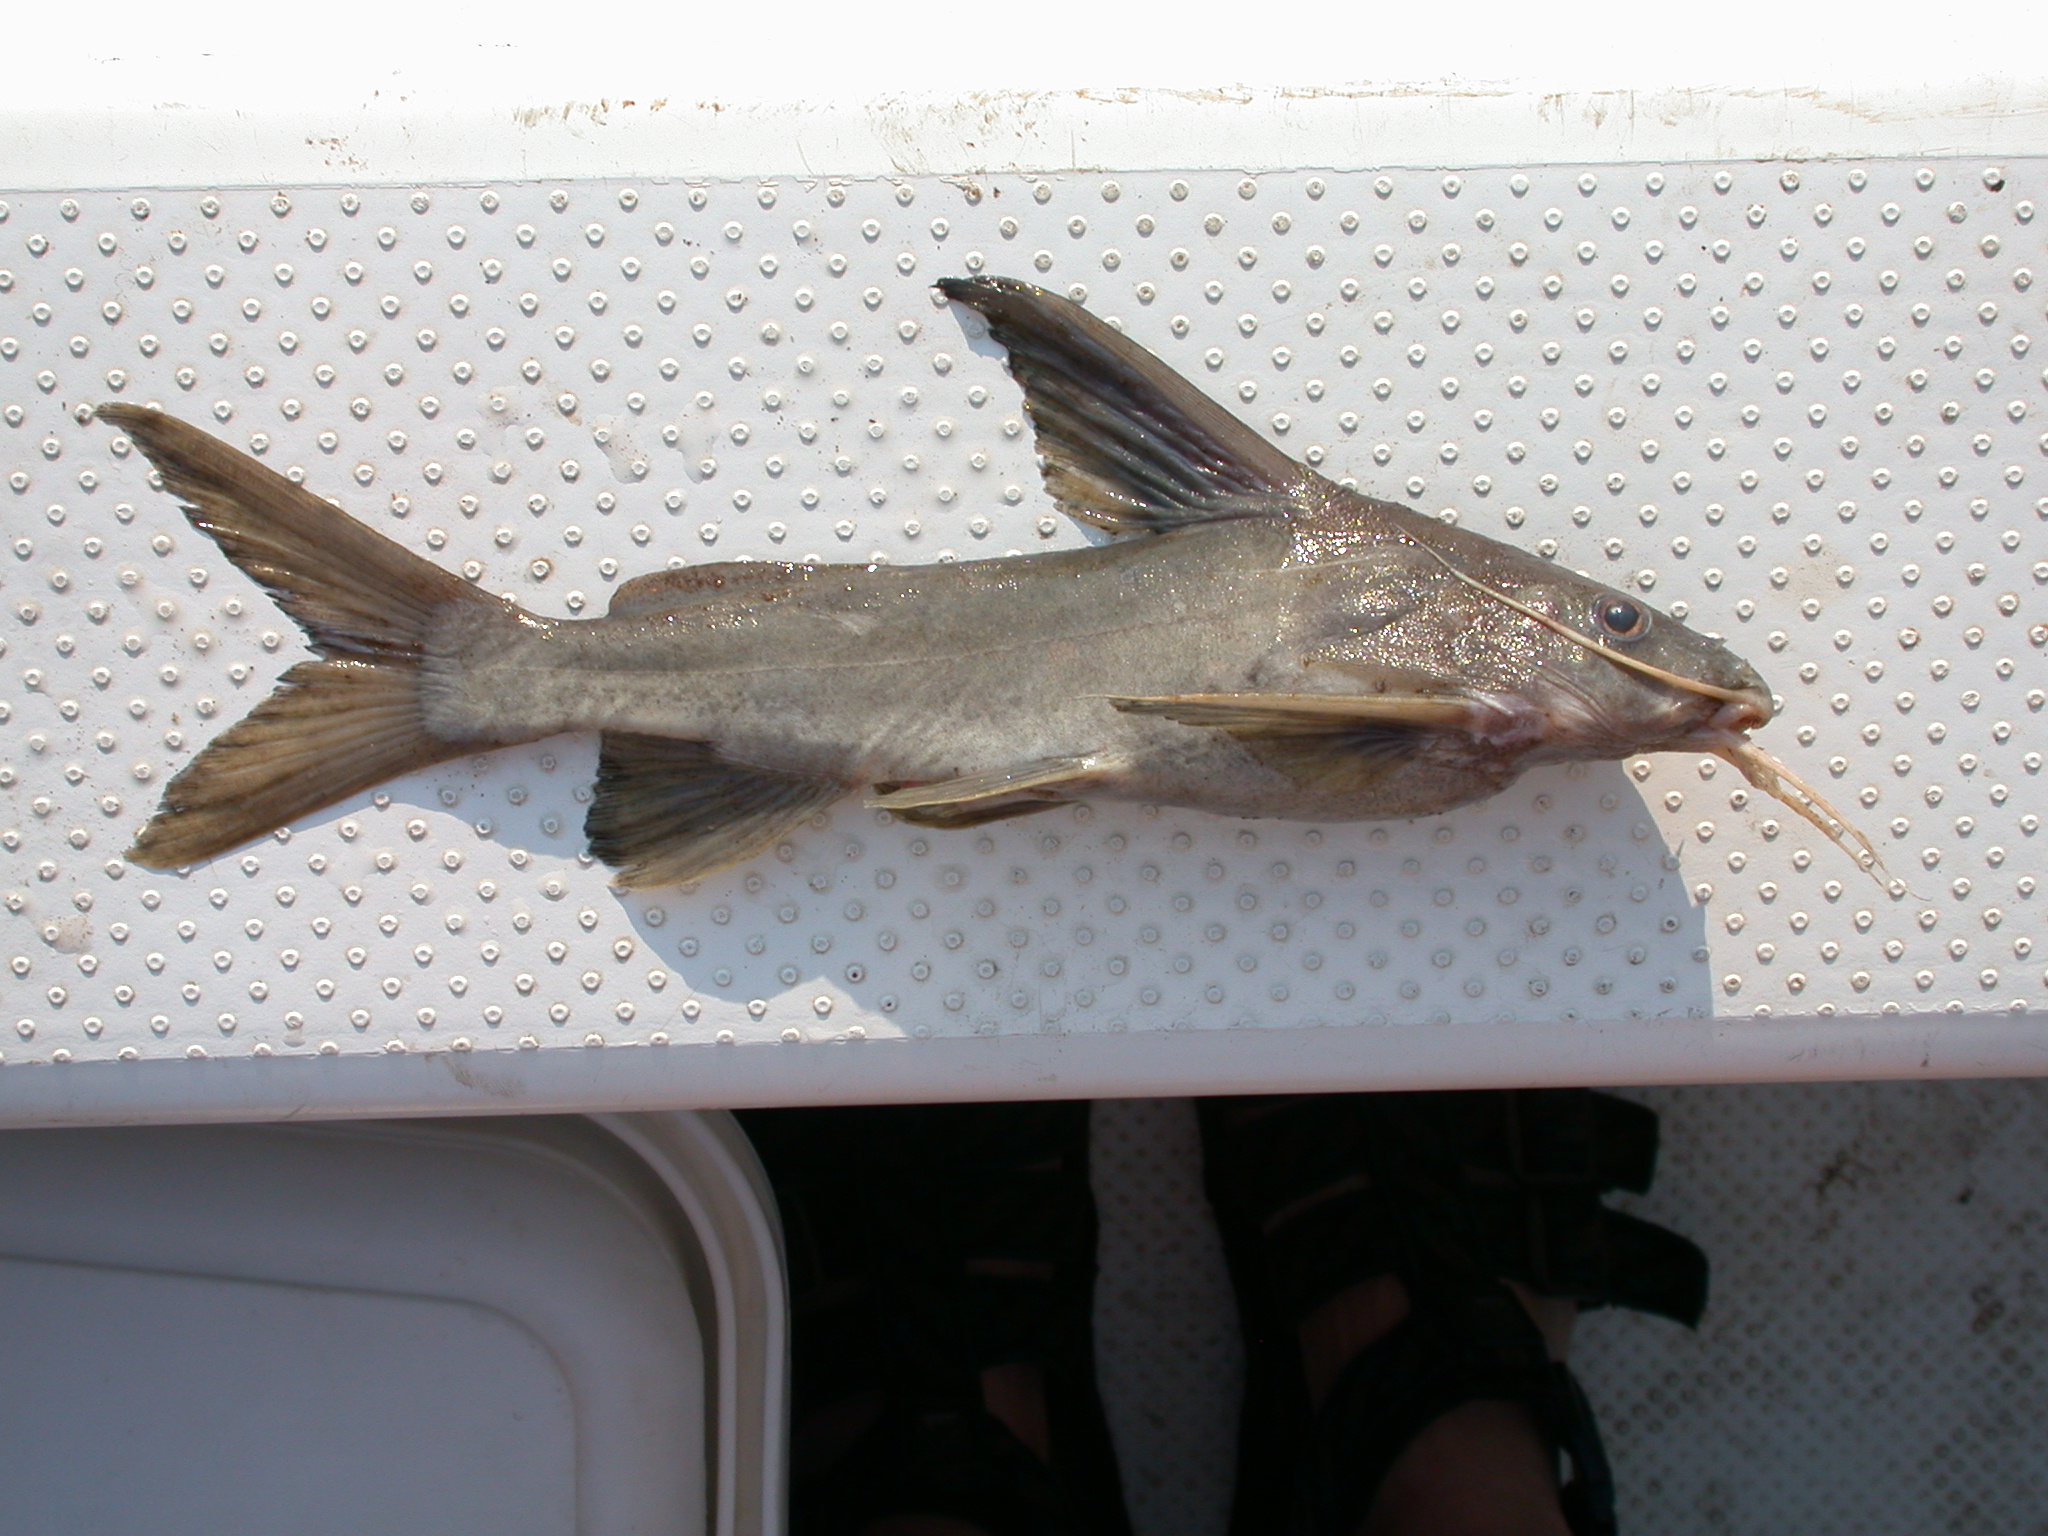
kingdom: Animalia
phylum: Chordata
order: Siluriformes
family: Mochokidae
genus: Synodontis
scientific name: Synodontis zambezensis
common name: Brown squeaker
